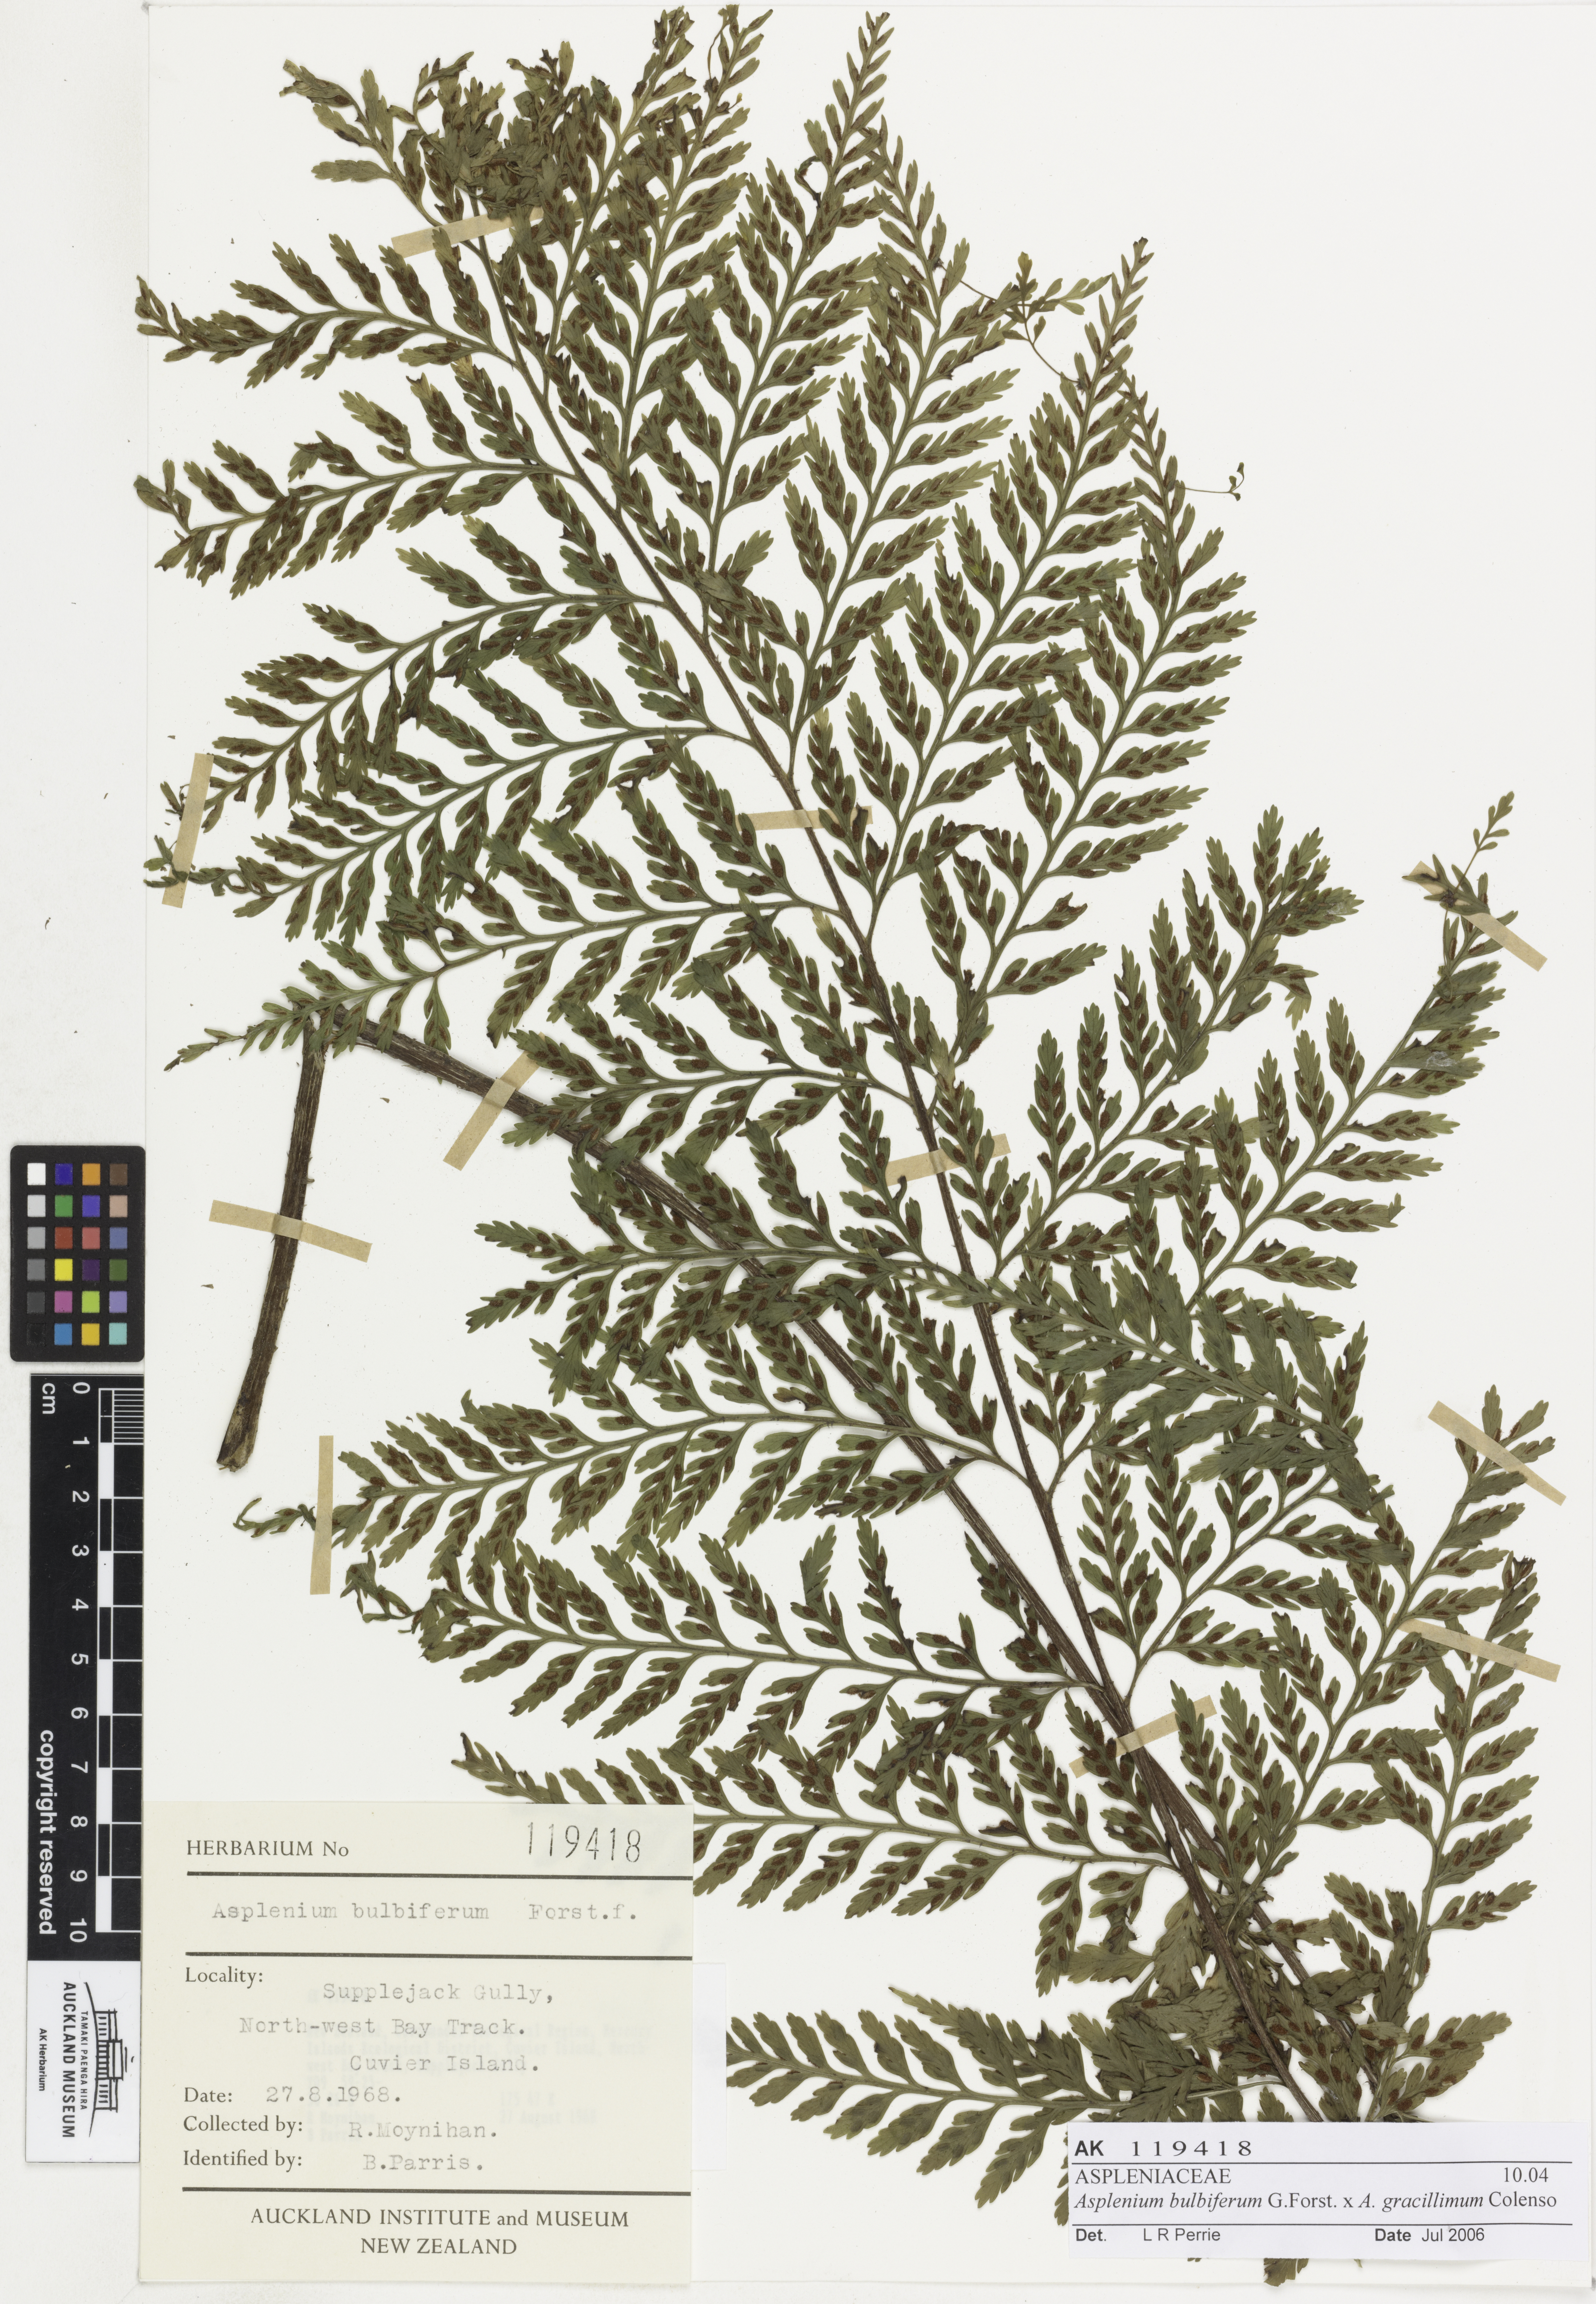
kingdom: Plantae
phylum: Tracheophyta
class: Polypodiopsida
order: Polypodiales
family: Aspleniaceae
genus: Asplenium
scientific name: Asplenium
